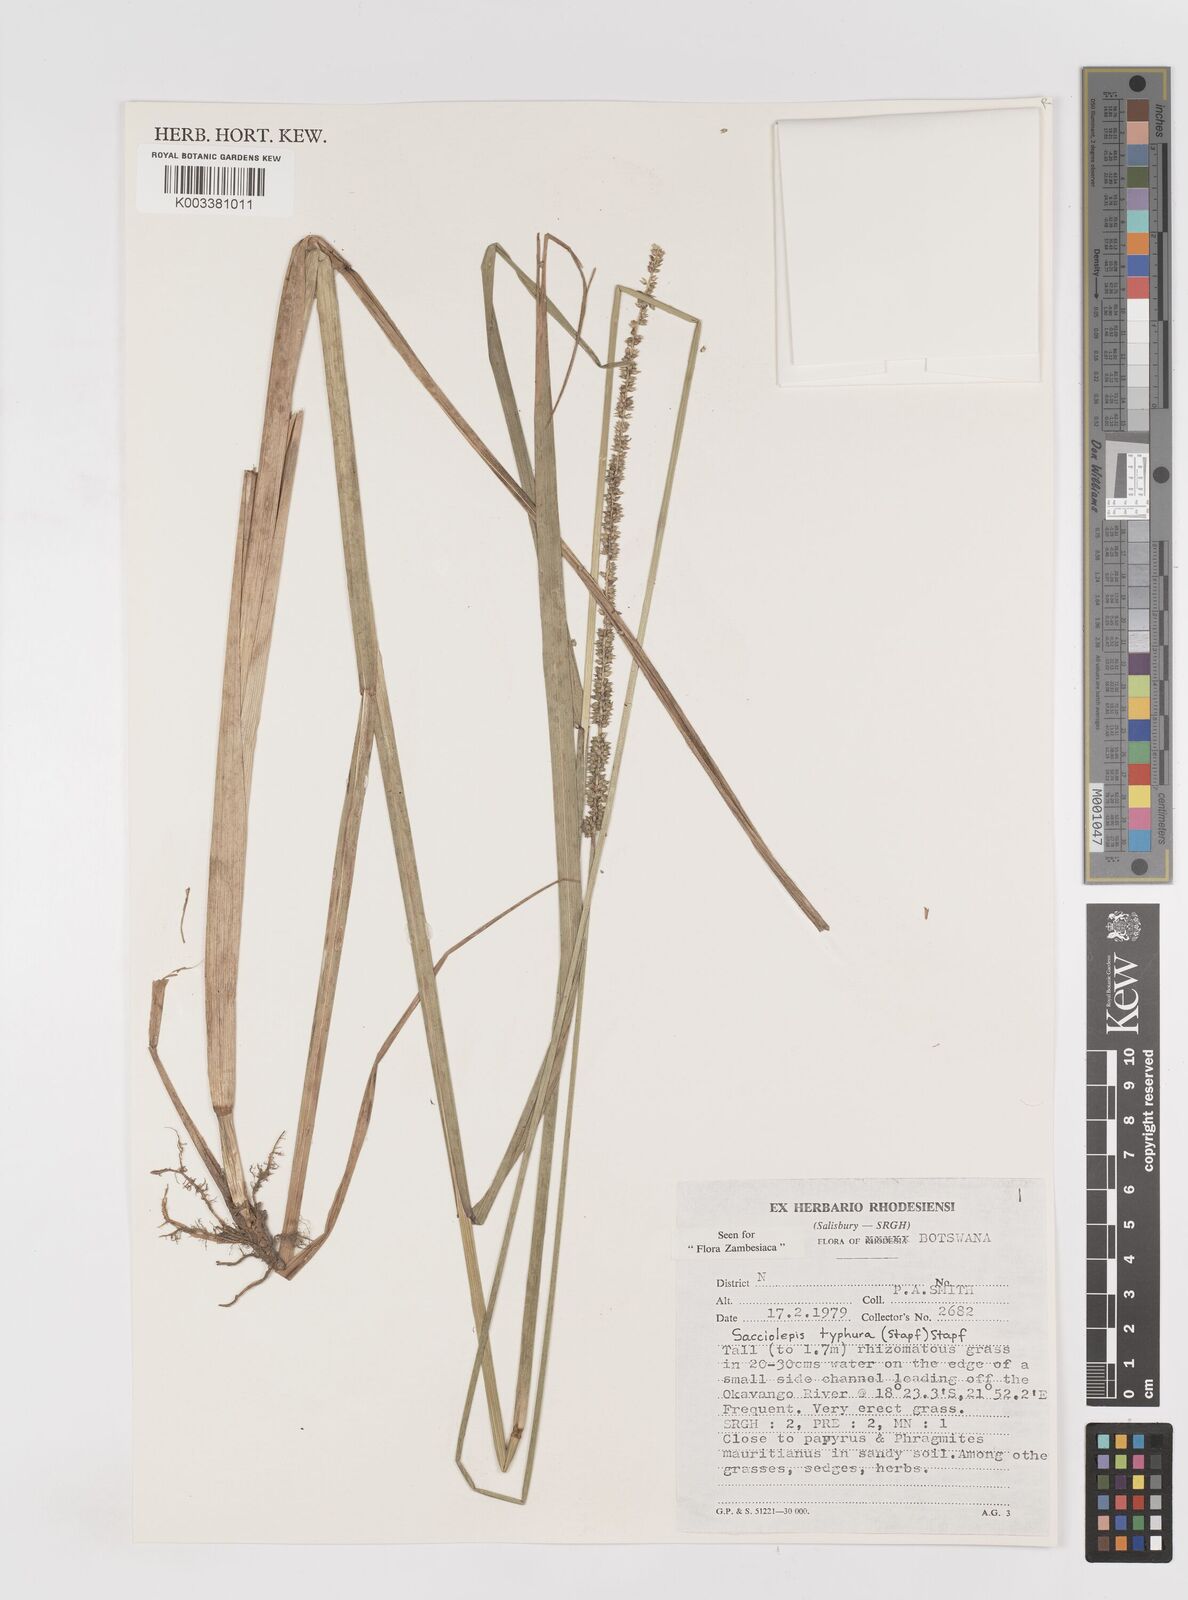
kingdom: Plantae
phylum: Tracheophyta
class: Liliopsida
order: Poales
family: Poaceae
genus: Sacciolepis
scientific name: Sacciolepis typhura
